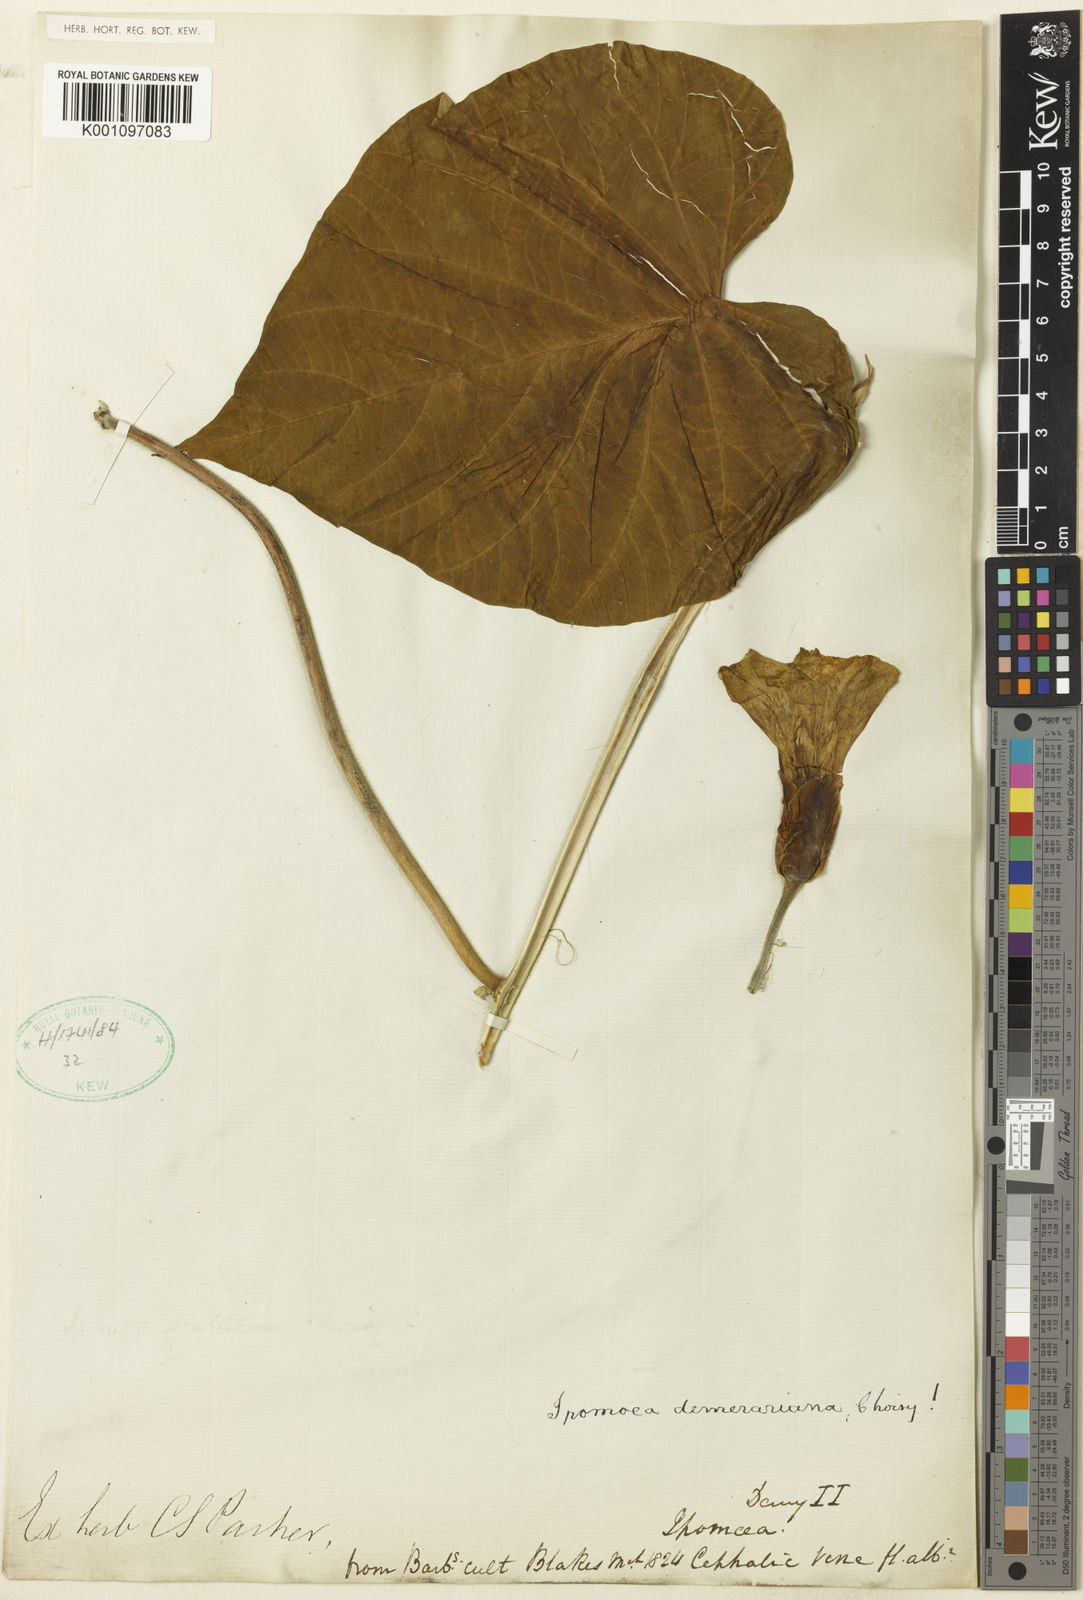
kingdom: Plantae
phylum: Tracheophyta
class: Magnoliopsida
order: Solanales
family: Convolvulaceae
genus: Operculina
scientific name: Operculina ventricosa
